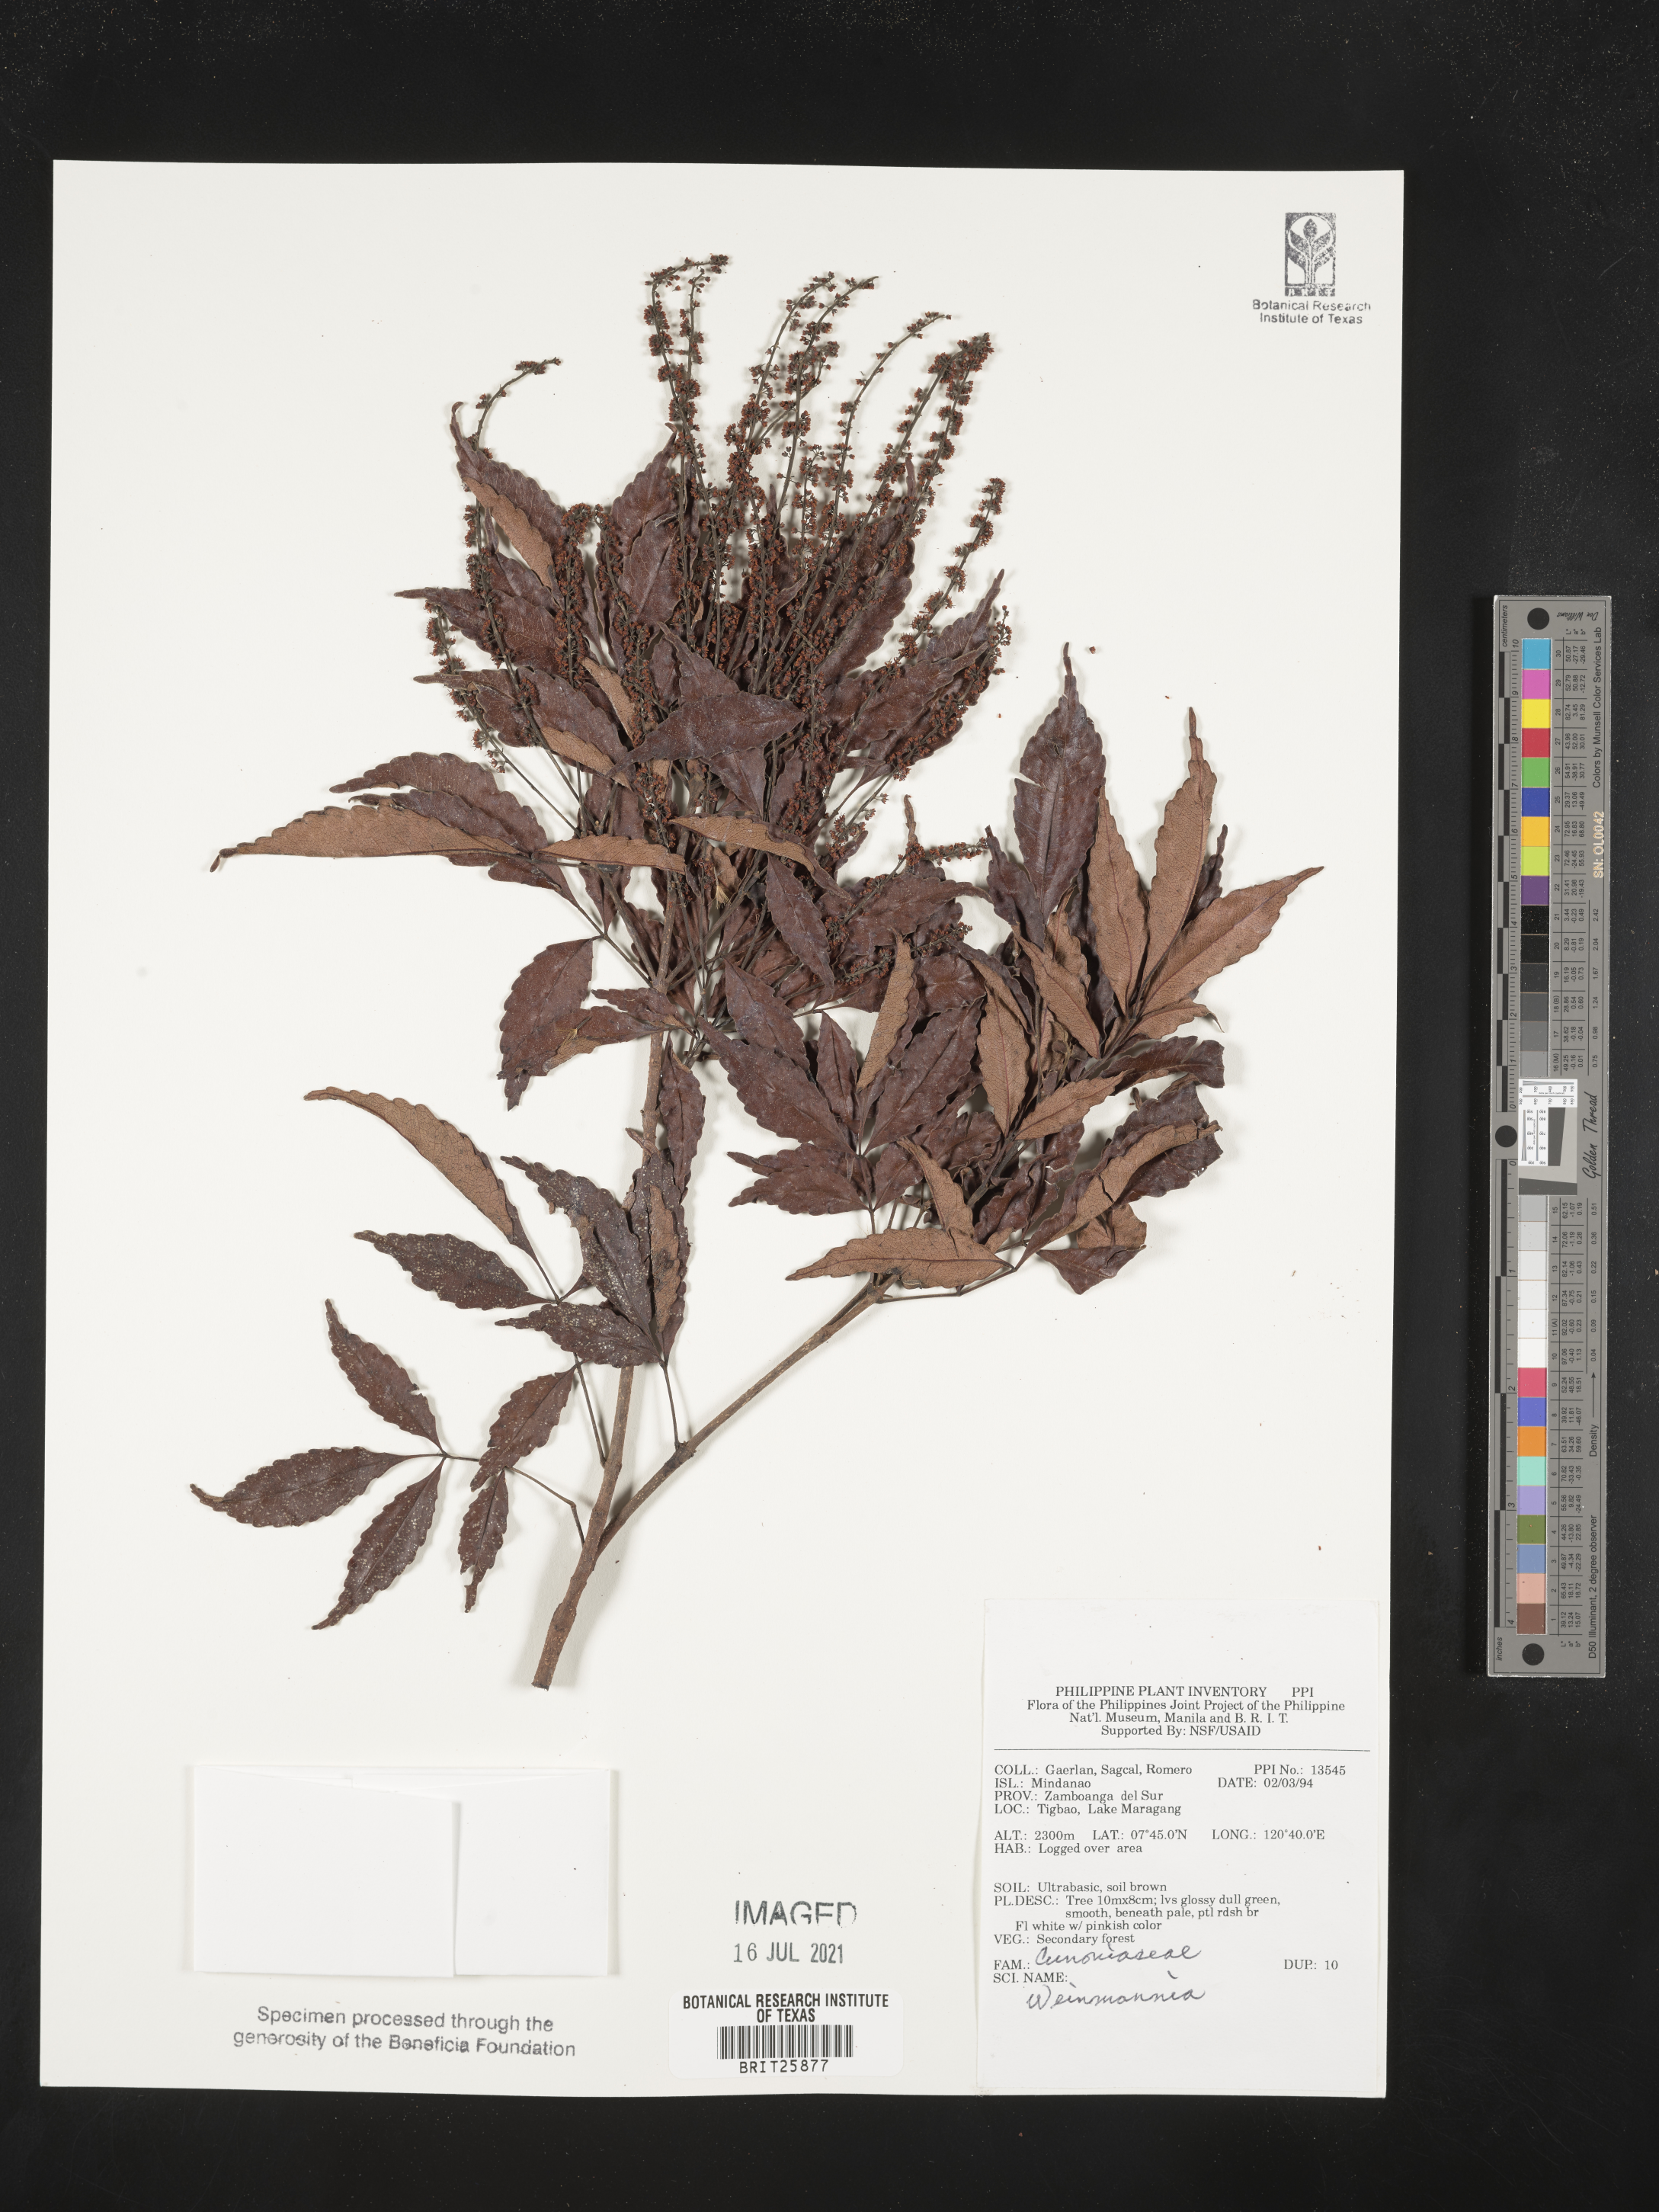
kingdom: Plantae
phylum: Tracheophyta
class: Magnoliopsida
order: Oxalidales
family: Cunoniaceae
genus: Weinmannia
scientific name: Weinmannia
